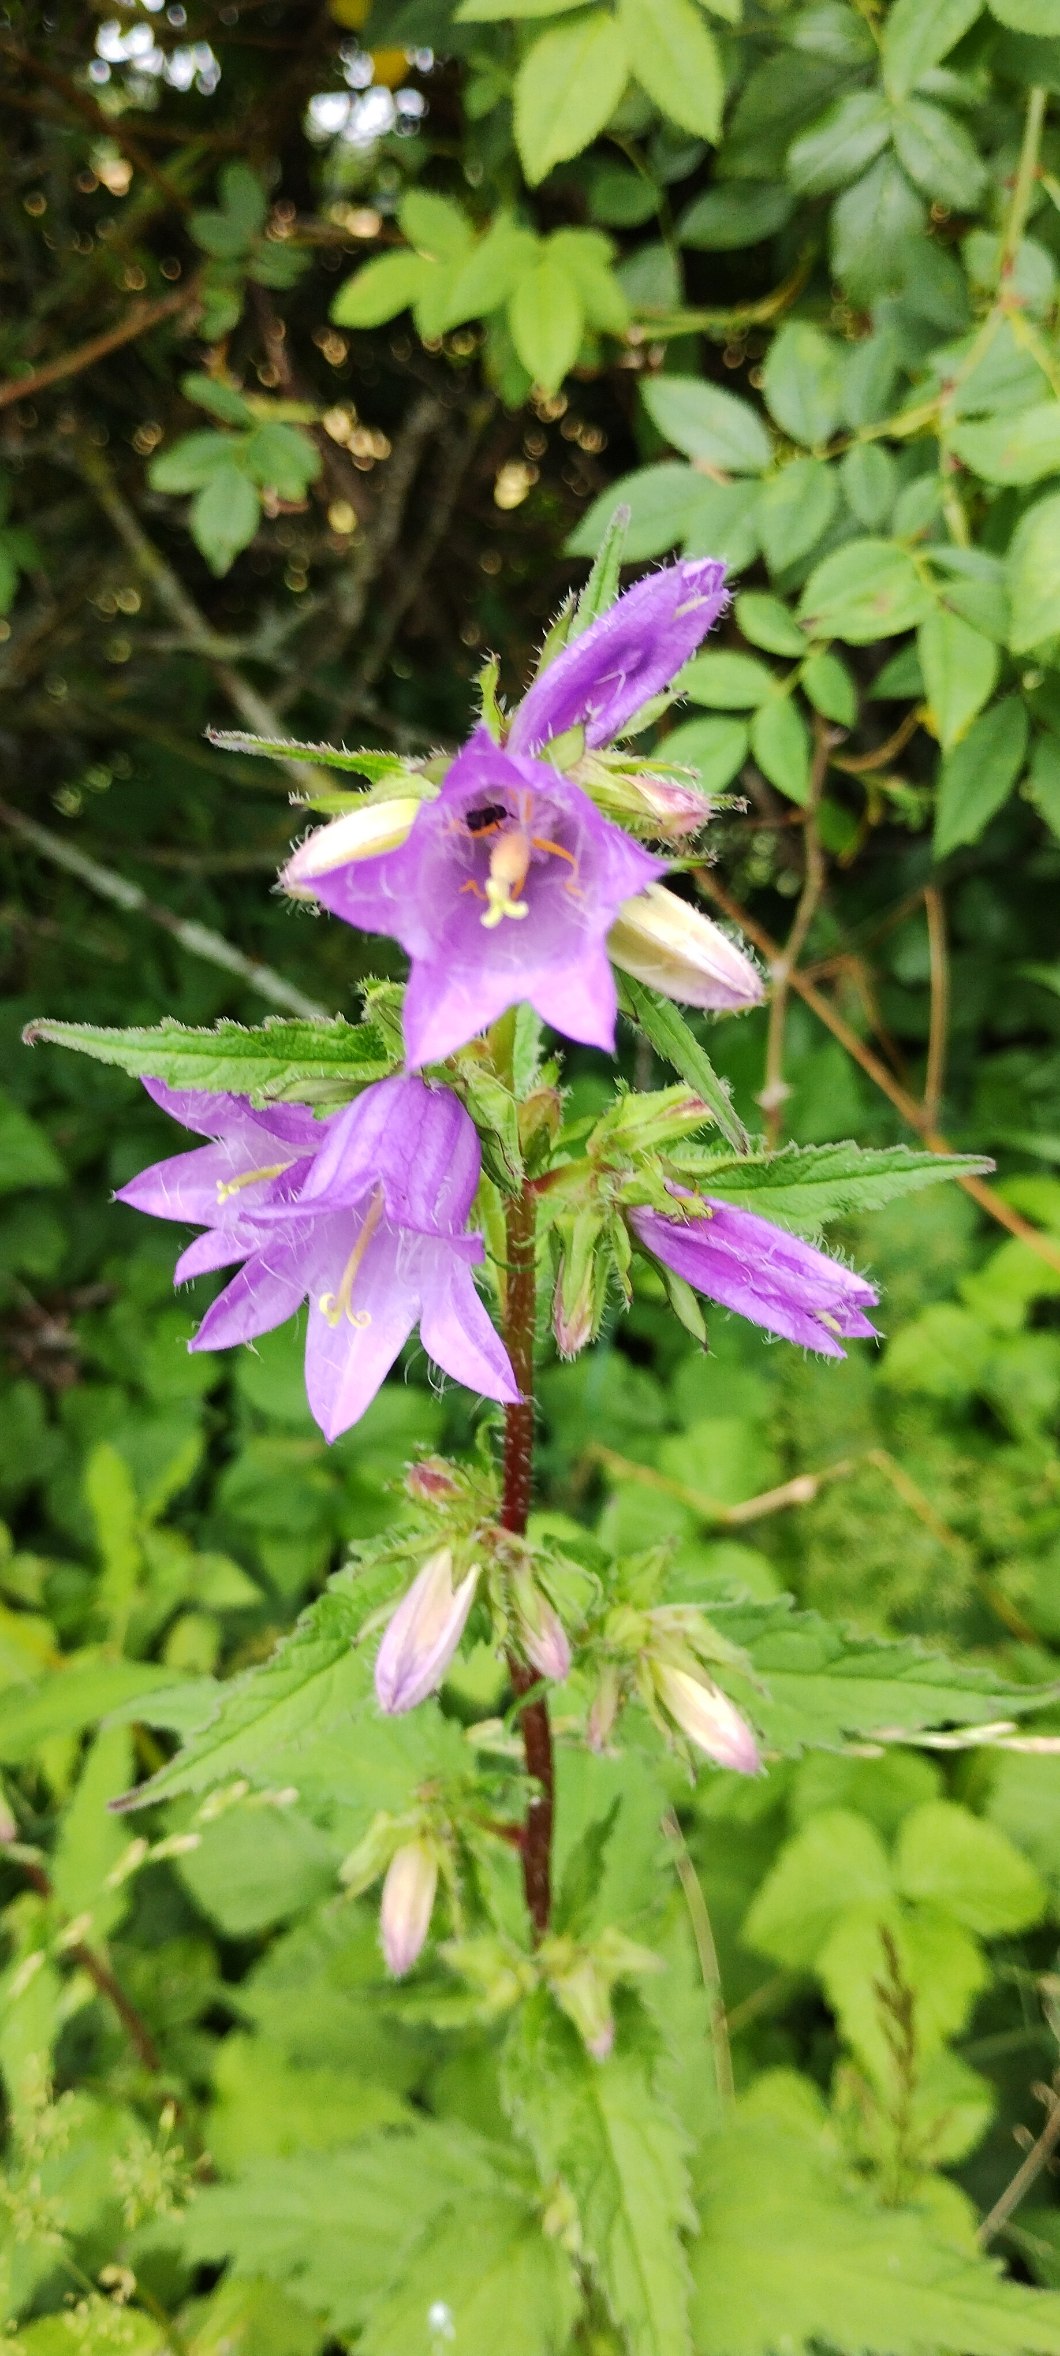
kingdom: Plantae
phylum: Tracheophyta
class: Magnoliopsida
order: Asterales
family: Campanulaceae
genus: Campanula
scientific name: Campanula trachelium
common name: Nælde-klokke
